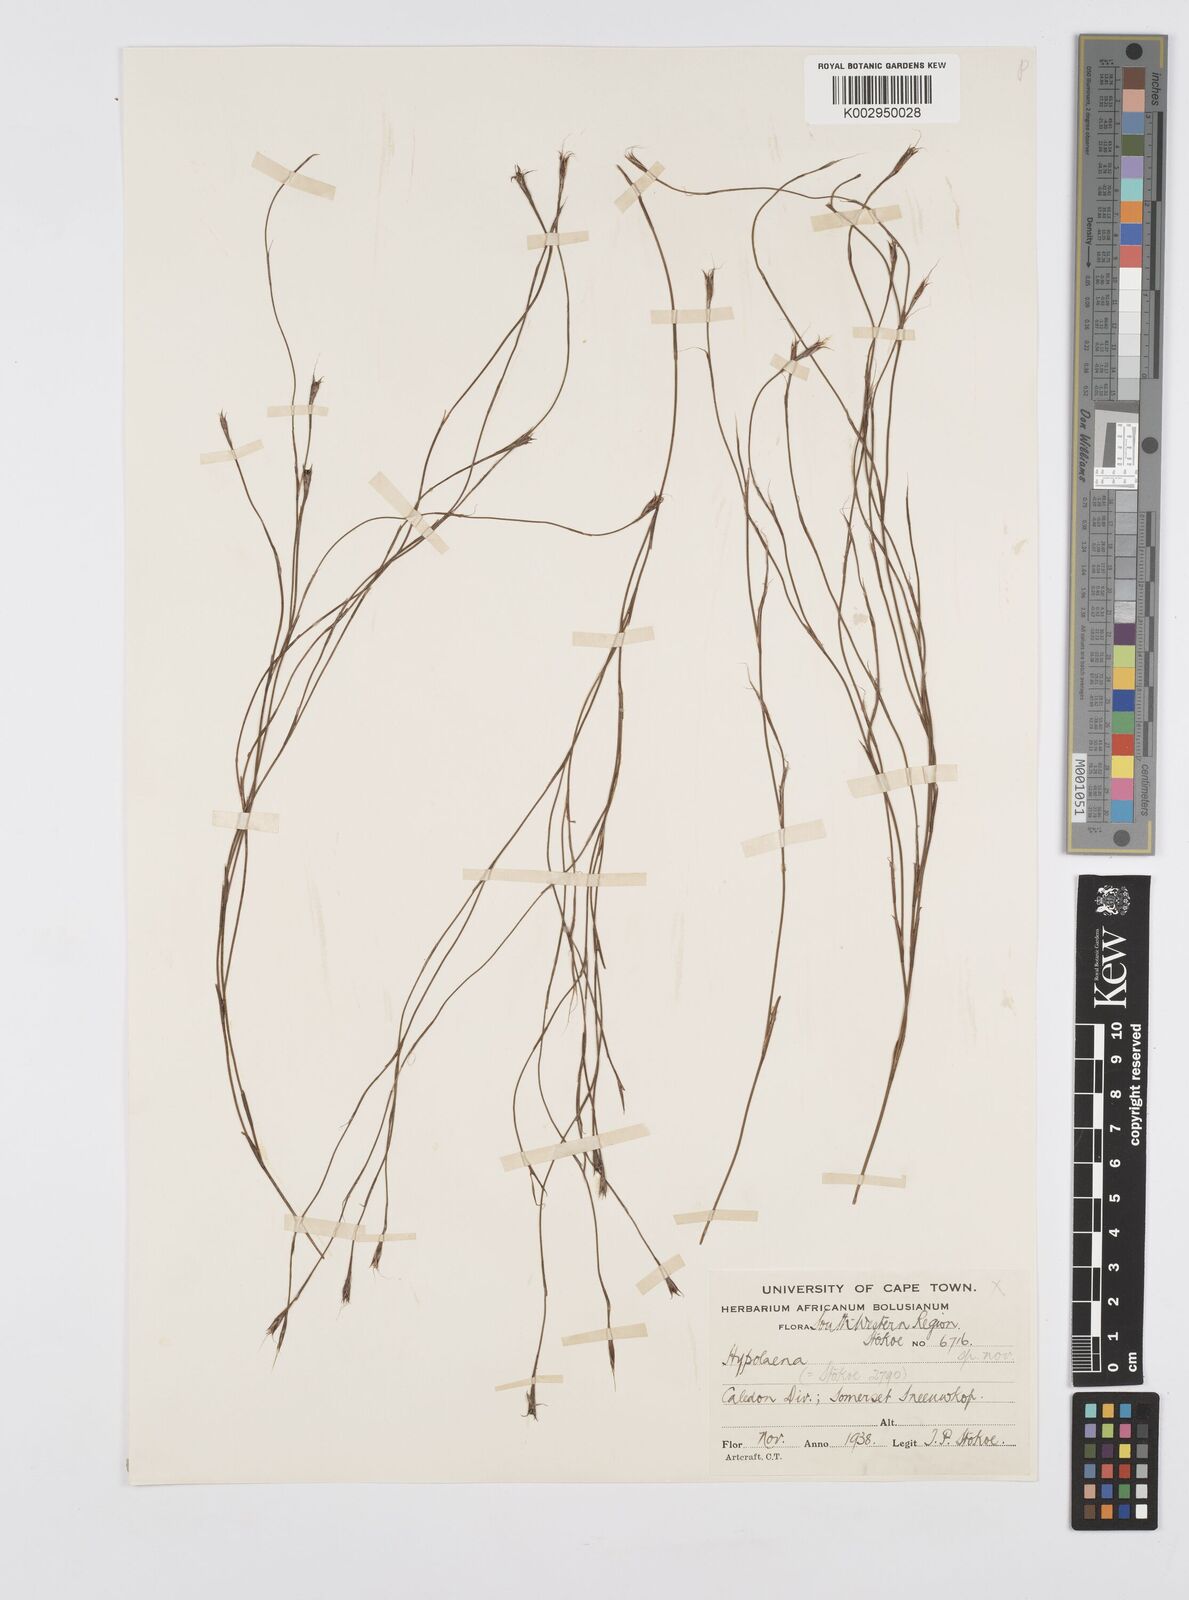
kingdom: Plantae
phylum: Tracheophyta
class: Liliopsida
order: Poales
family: Restionaceae
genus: Anthochortus
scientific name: Anthochortus
